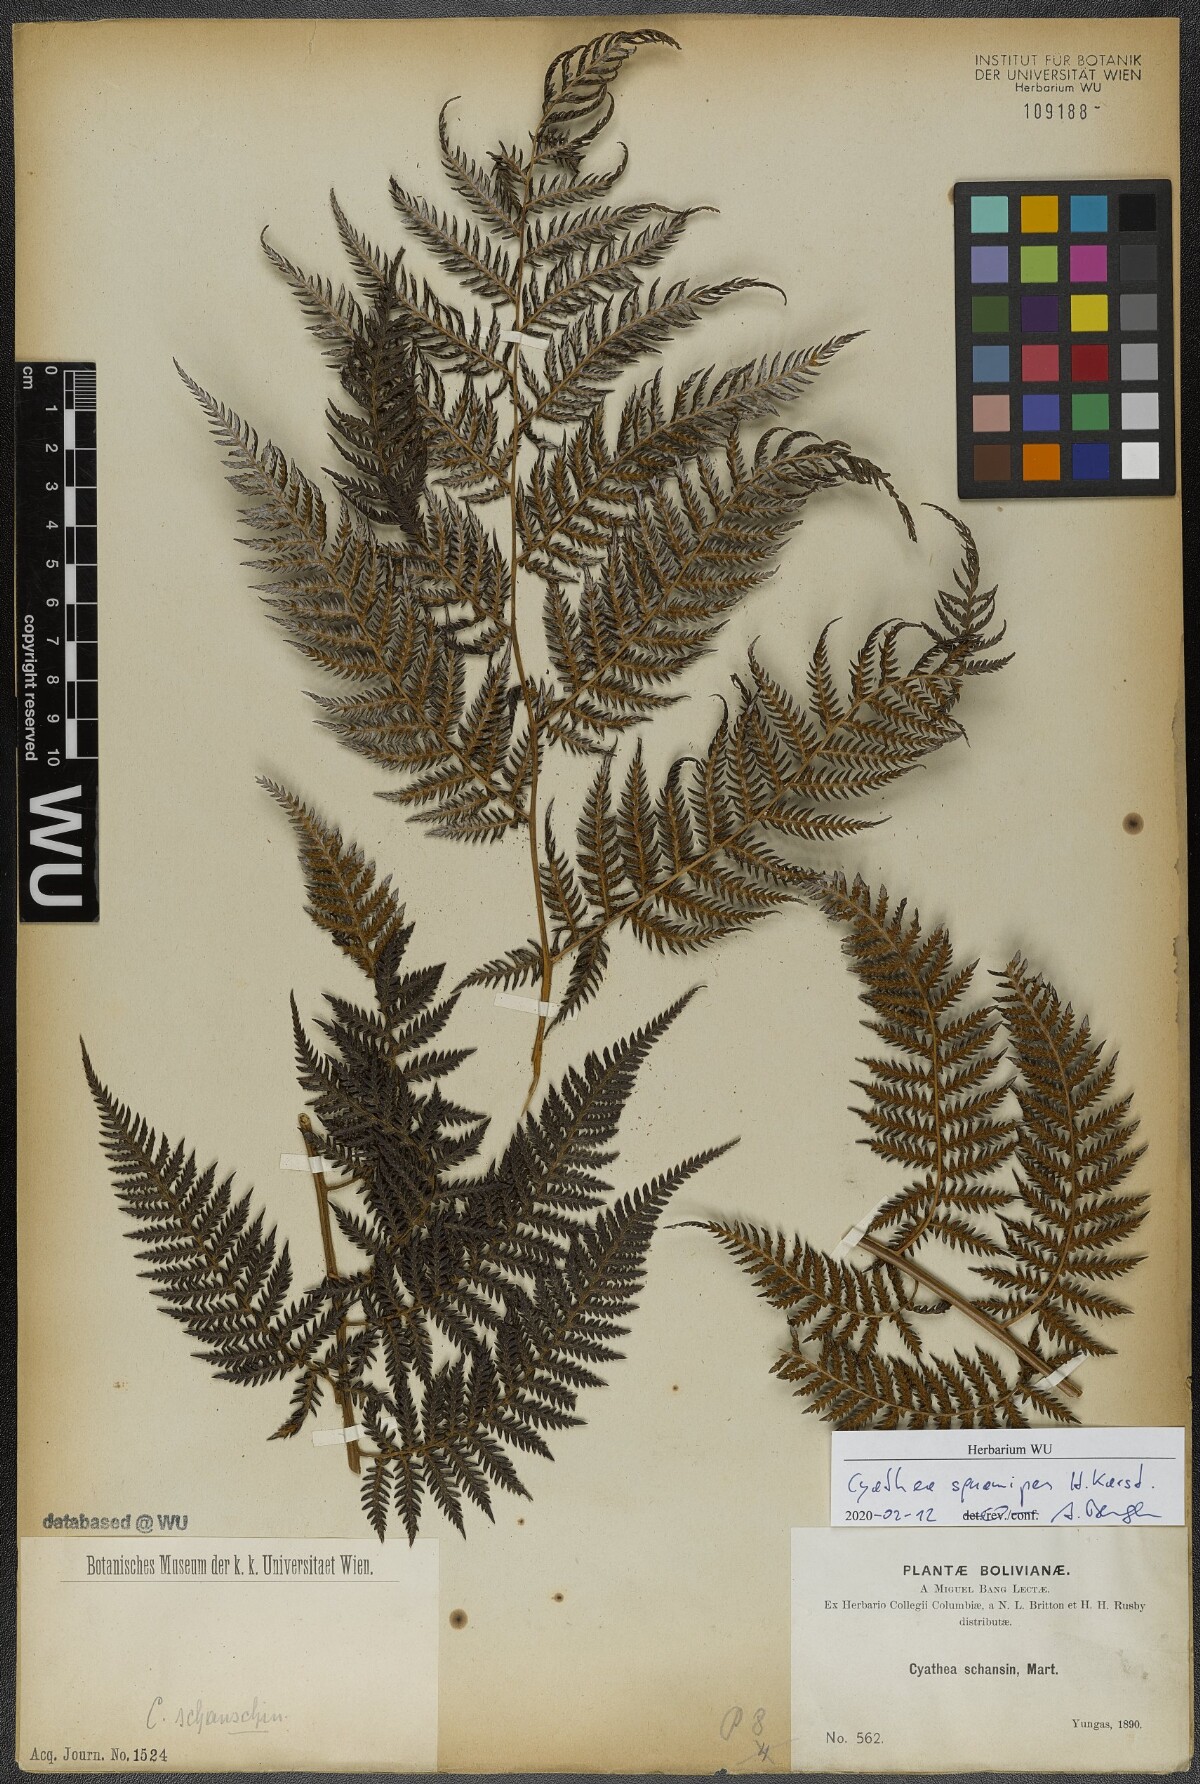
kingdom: Plantae
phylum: Tracheophyta
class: Polypodiopsida
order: Cyatheales
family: Cyatheaceae
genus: Cyathea
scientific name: Cyathea squamipes
